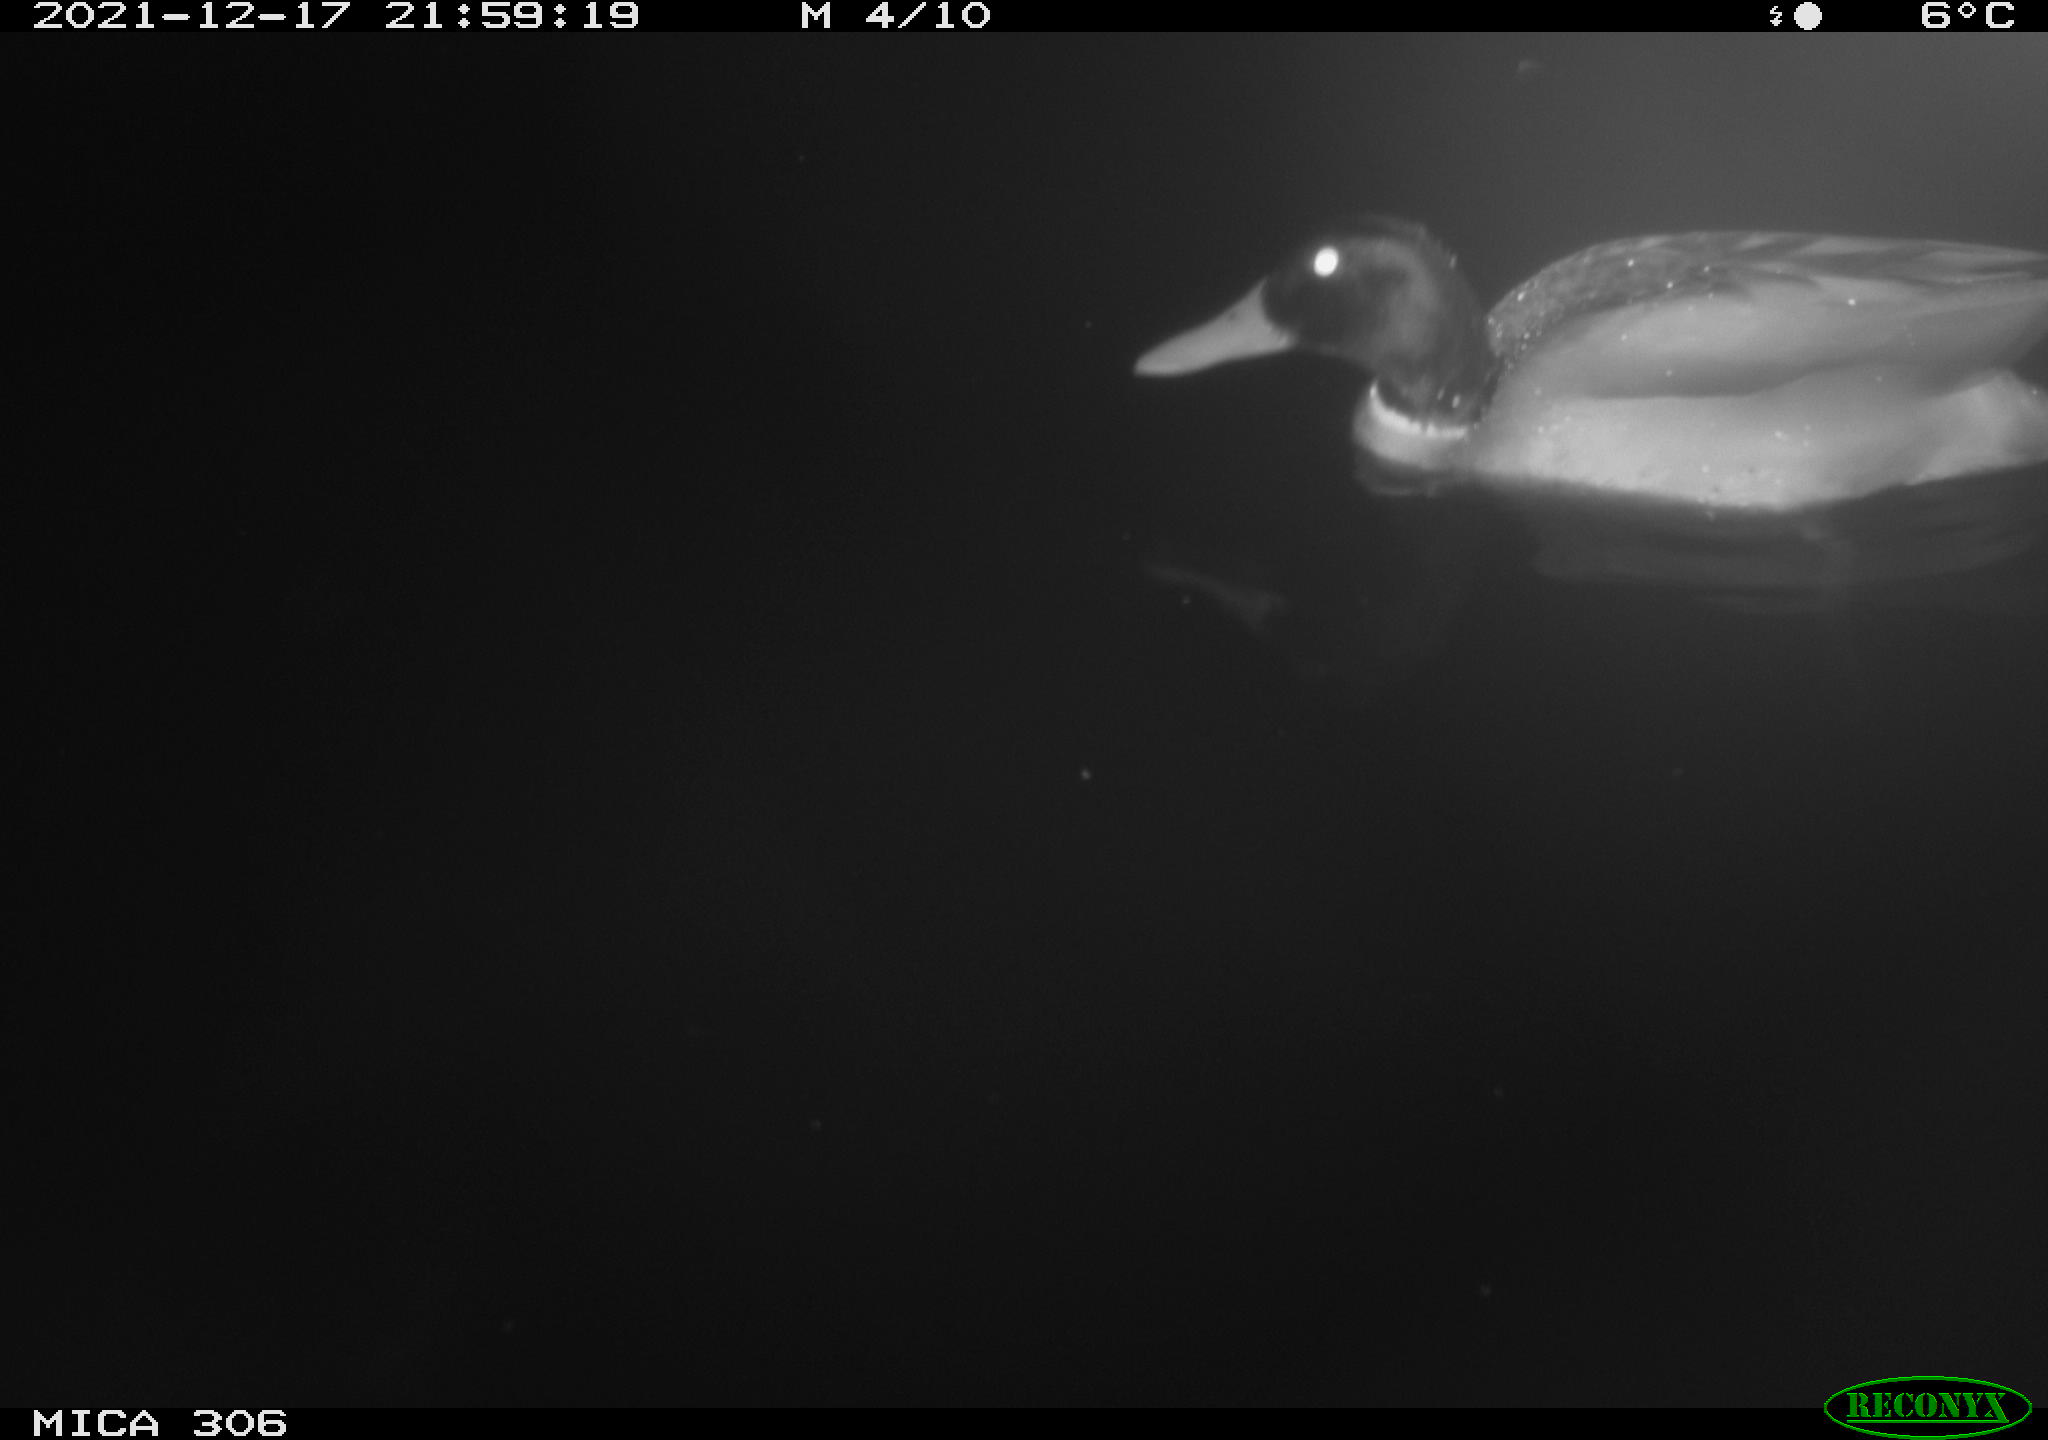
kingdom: Animalia
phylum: Chordata
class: Aves
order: Anseriformes
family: Anatidae
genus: Anas
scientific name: Anas
